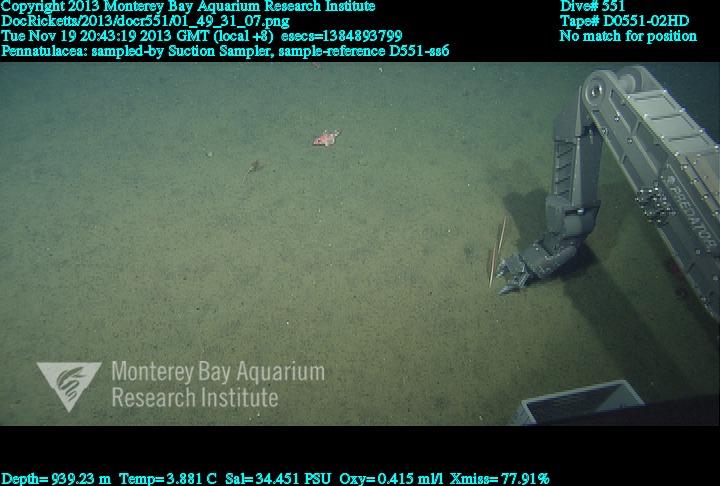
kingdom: Animalia
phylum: Cnidaria
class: Anthozoa
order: Scleralcyonacea
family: Funiculinidae
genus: Funiculina
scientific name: Funiculina
